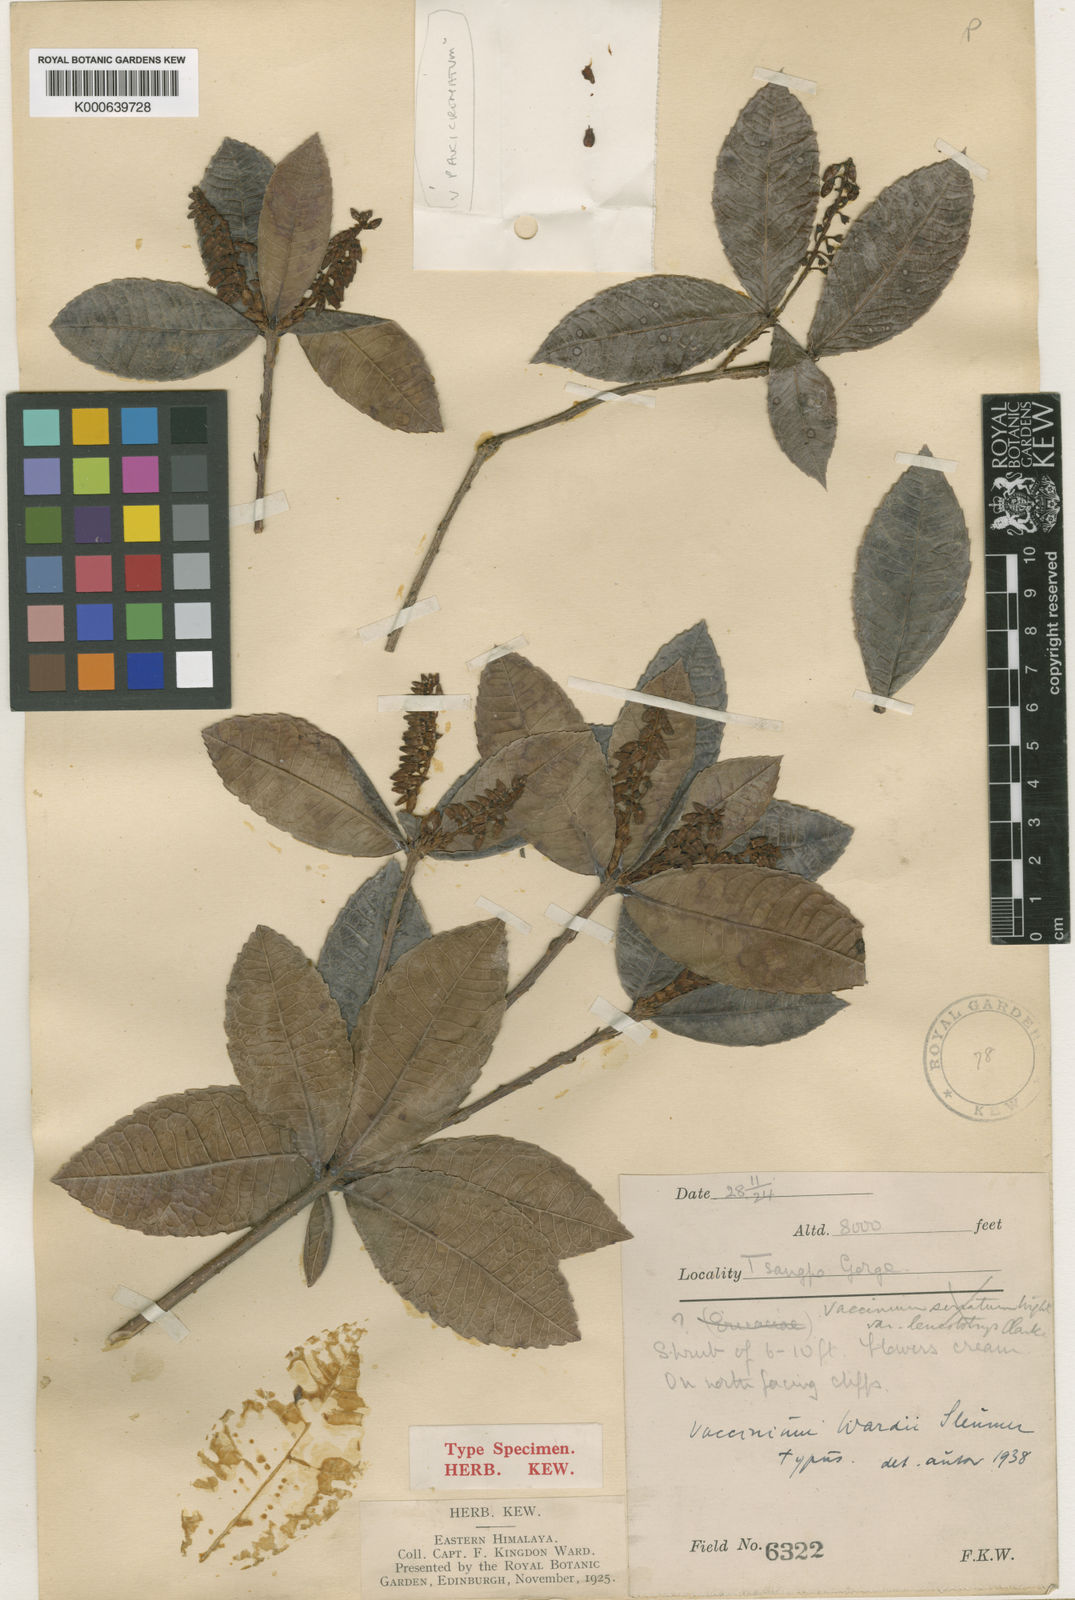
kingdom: Plantae
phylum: Tracheophyta
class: Magnoliopsida
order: Ericales
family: Ericaceae
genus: Vaccinium
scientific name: Vaccinium kingdon-wardii
